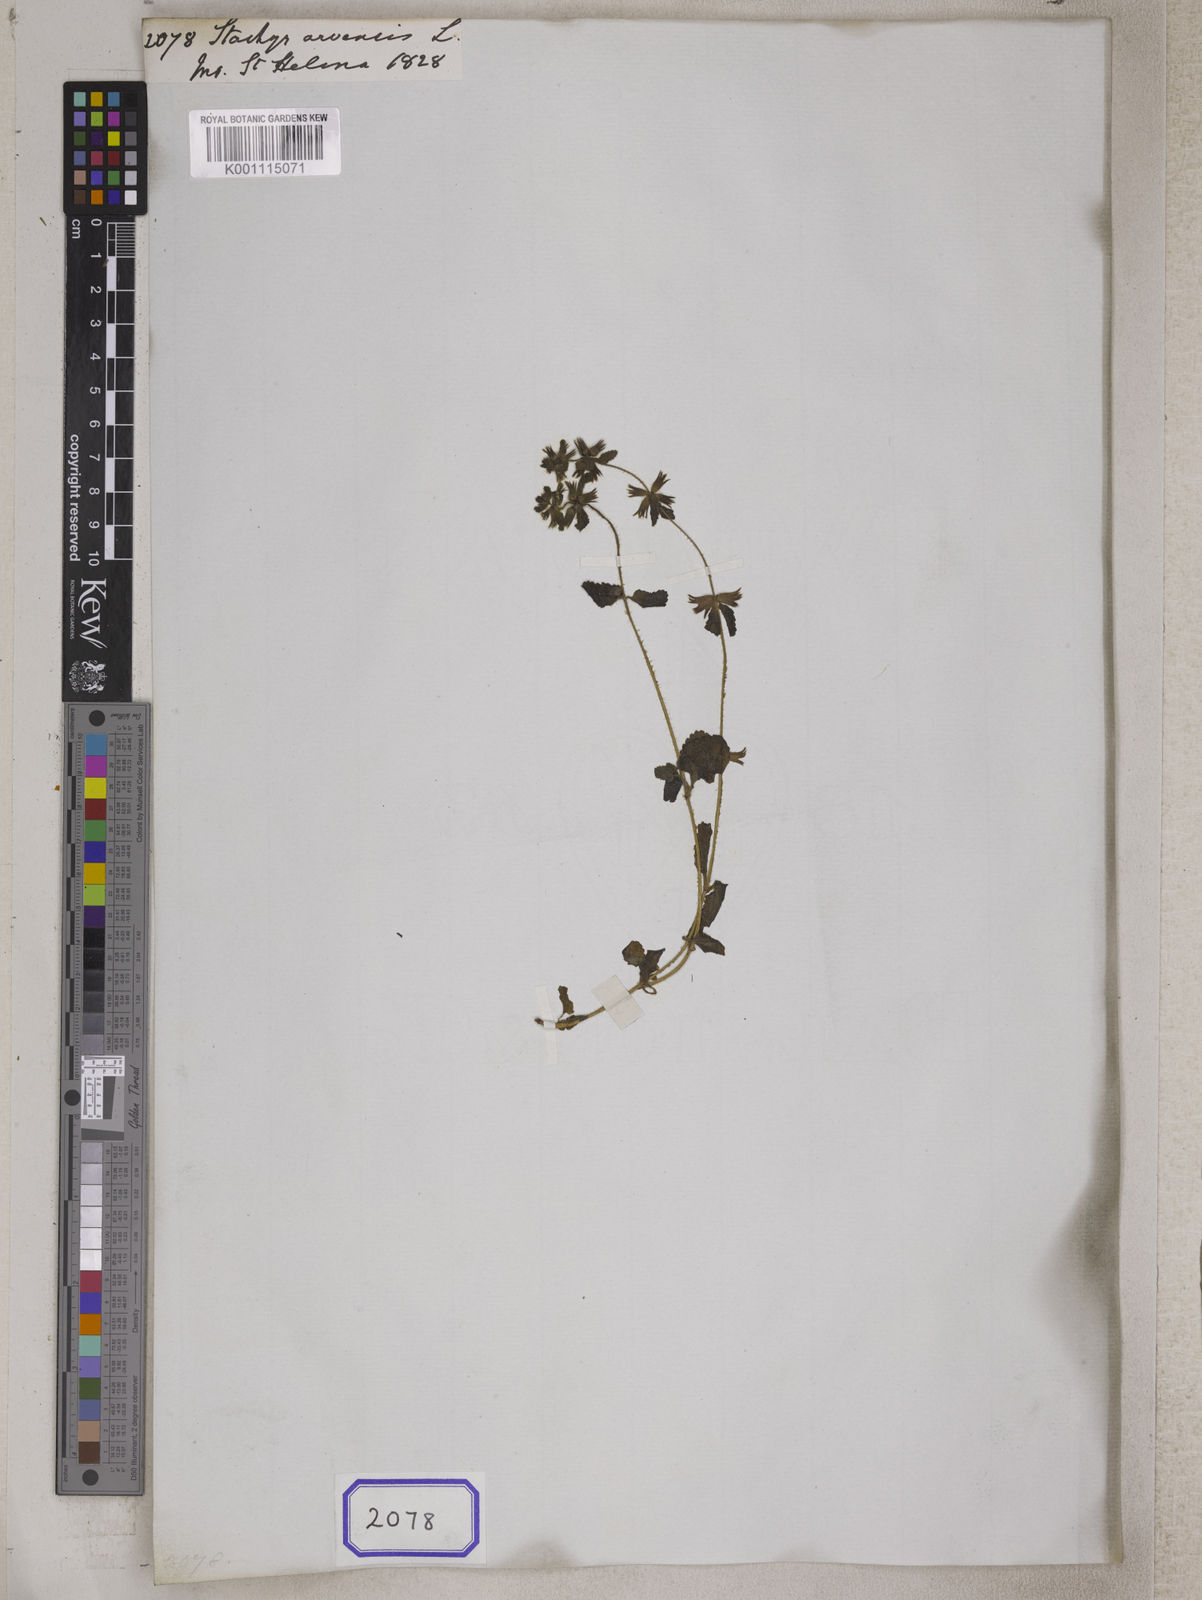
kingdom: Plantae
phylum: Tracheophyta
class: Magnoliopsida
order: Lamiales
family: Lamiaceae
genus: Stachys
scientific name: Stachys arvensis
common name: Field woundwort
